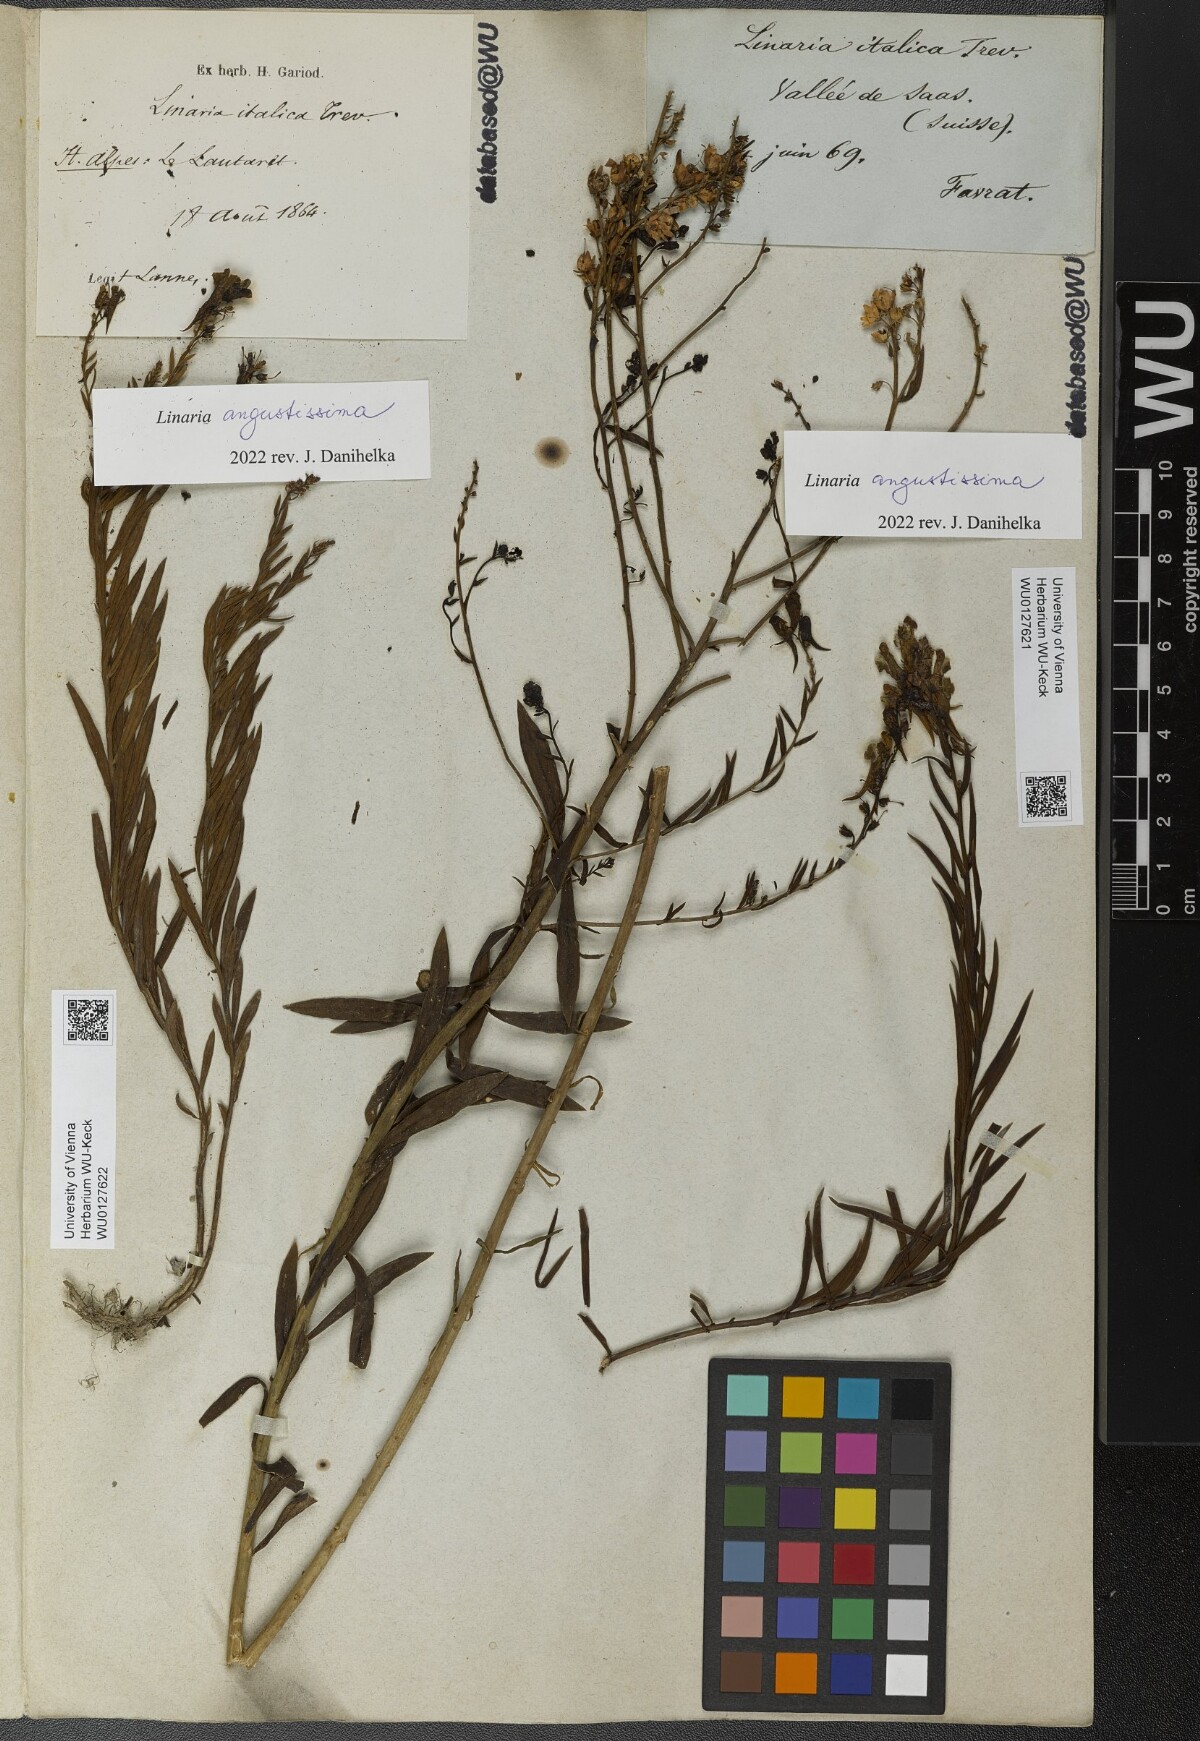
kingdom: Plantae
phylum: Tracheophyta
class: Magnoliopsida
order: Lamiales
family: Plantaginaceae
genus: Linaria
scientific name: Linaria angustissima
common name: Italian toadflax
